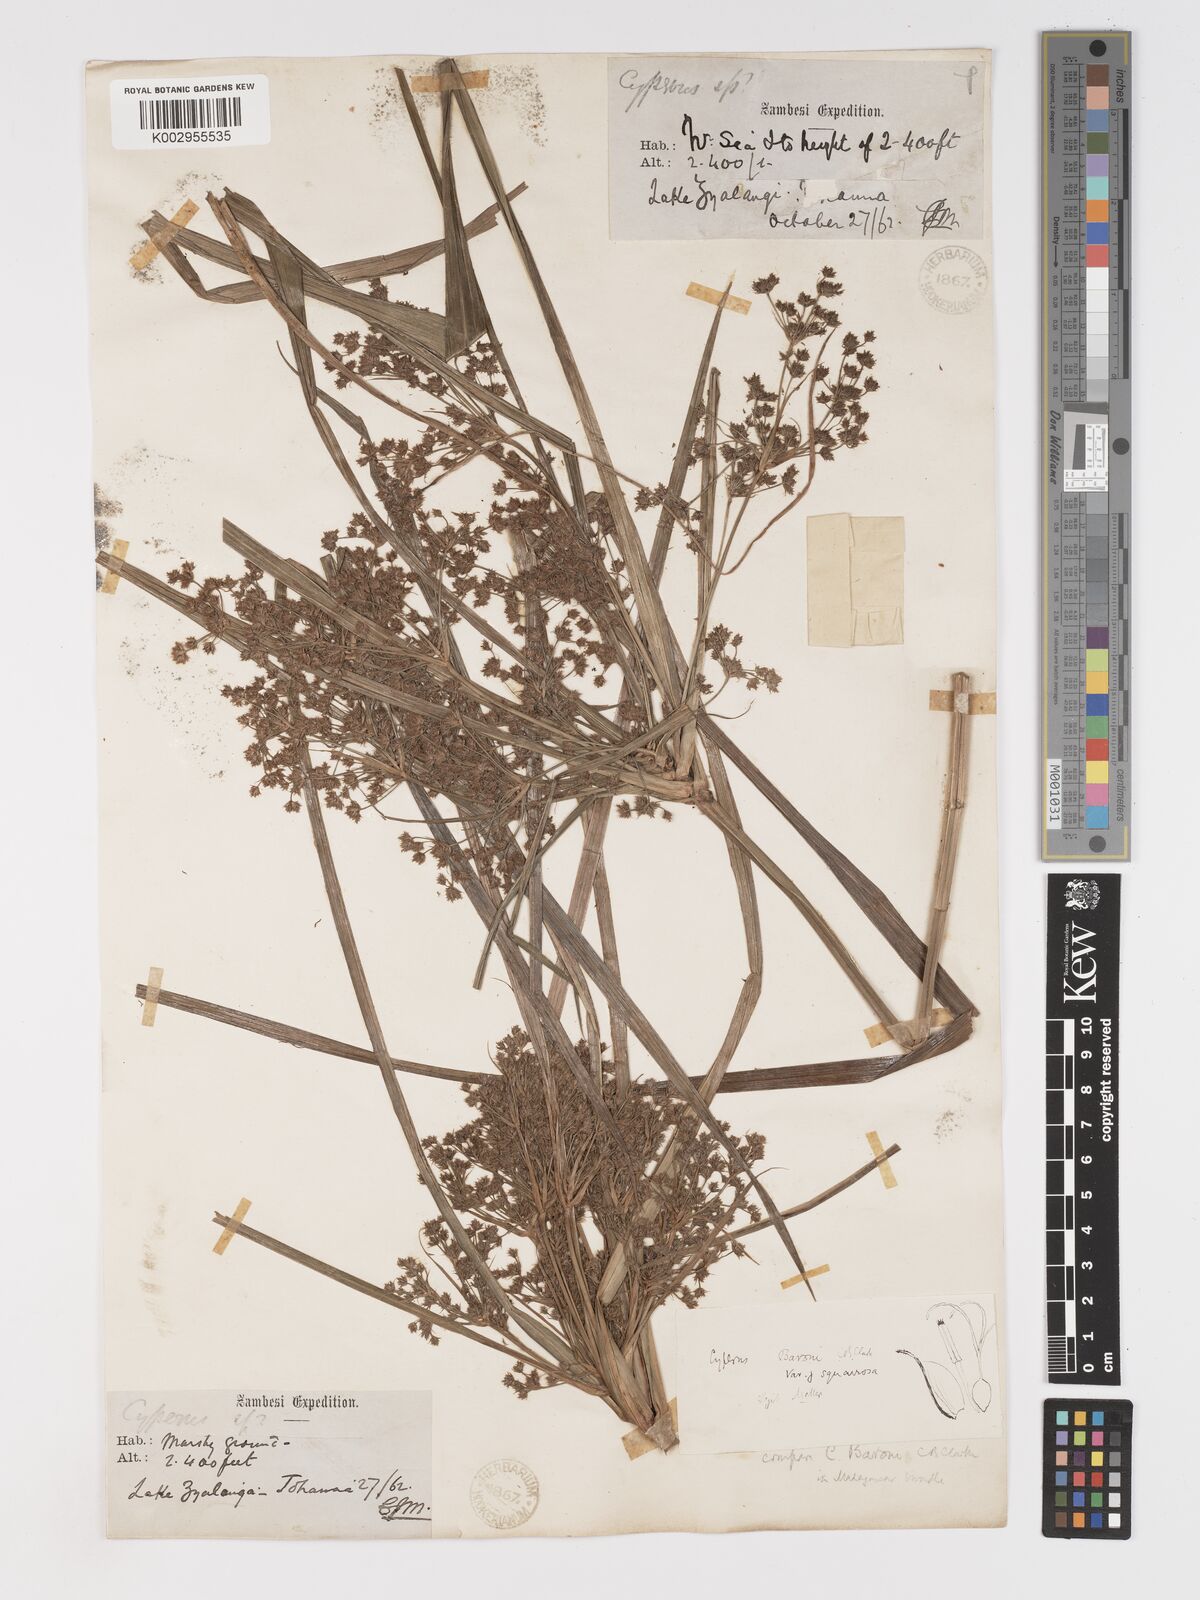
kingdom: Plantae
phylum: Tracheophyta
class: Liliopsida
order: Poales
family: Cyperaceae
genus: Cyperus
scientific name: Cyperus baronii
